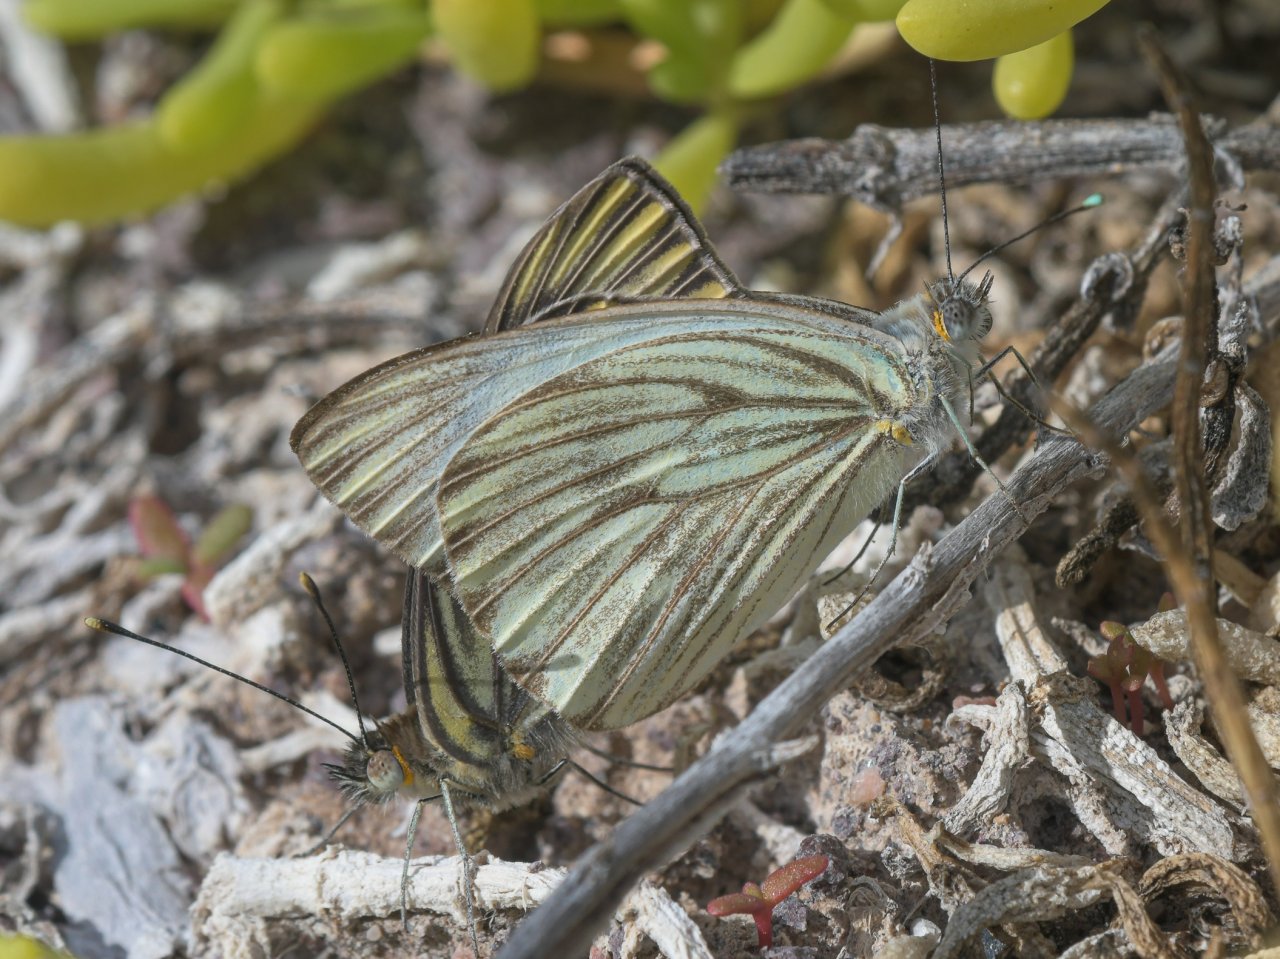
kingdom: Animalia
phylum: Arthropoda
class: Insecta
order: Lepidoptera
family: Pieridae
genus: Ascia
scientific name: Ascia monuste
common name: Great Southern White
